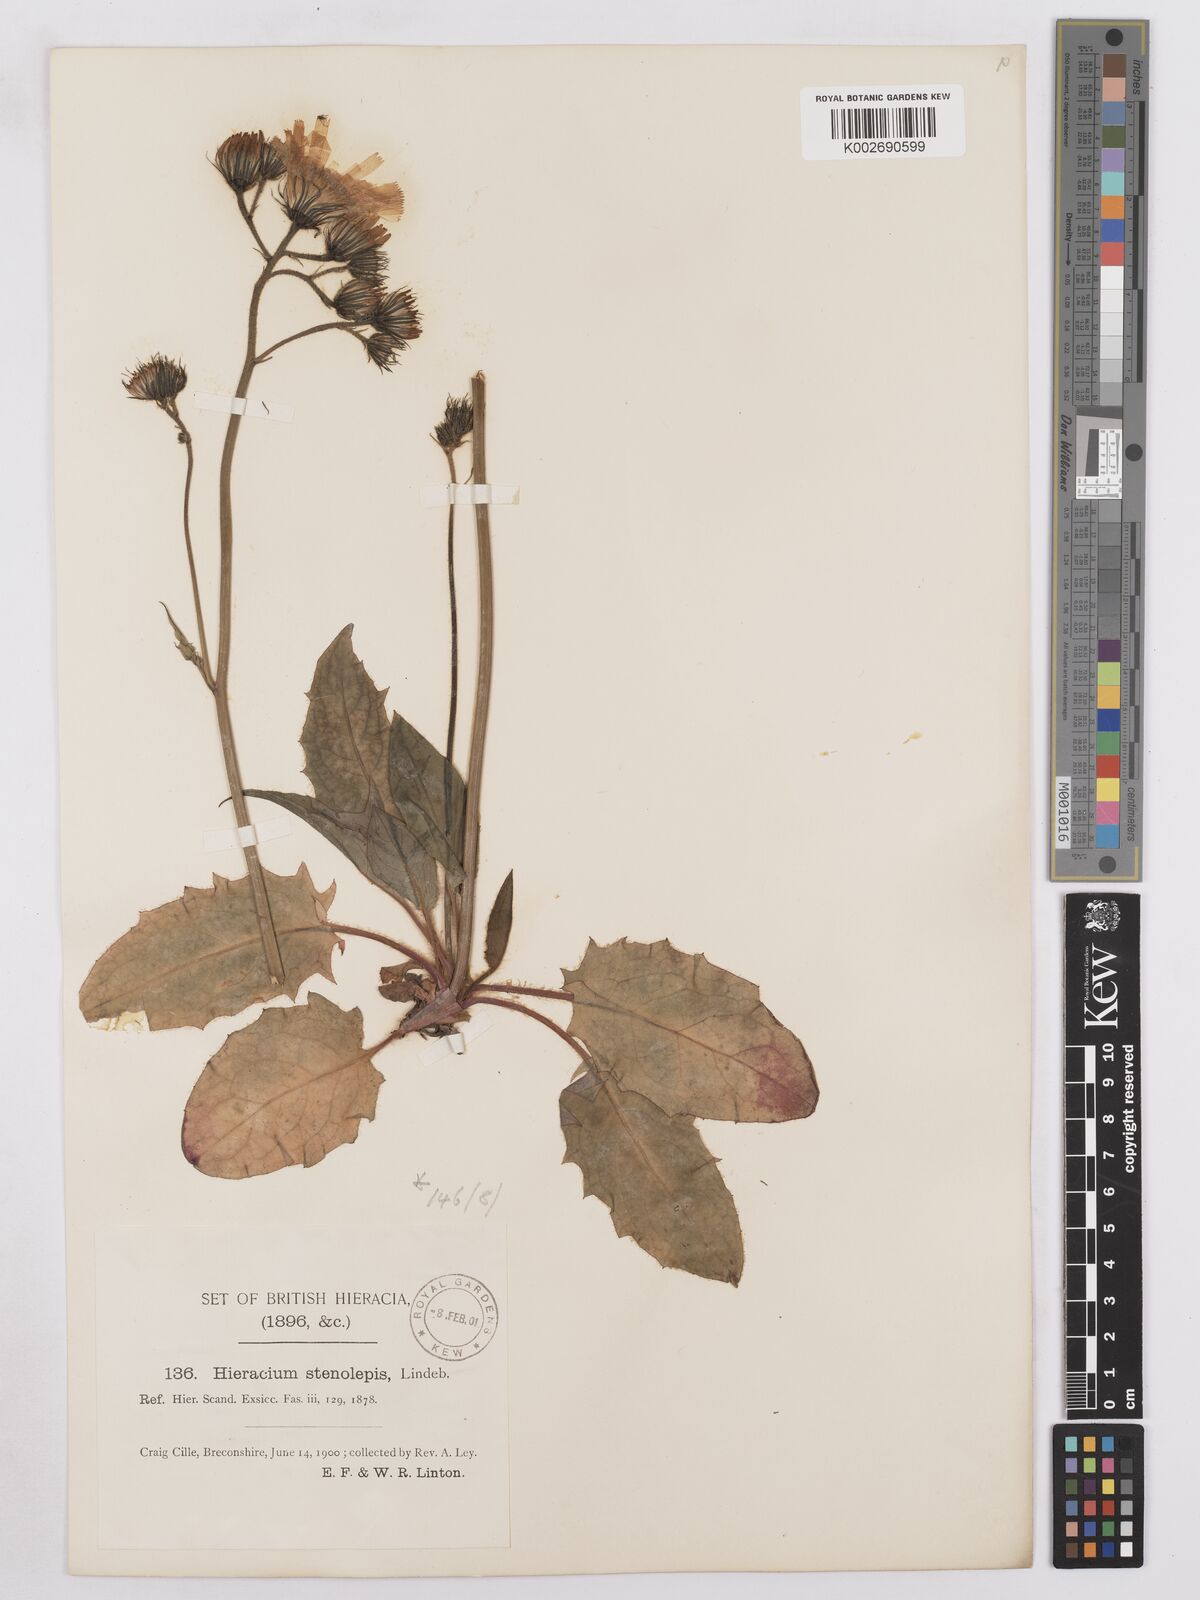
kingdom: Plantae
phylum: Tracheophyta
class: Magnoliopsida
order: Asterales
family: Asteraceae
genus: Hieracium
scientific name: Hieracium subbritannicum
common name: Limestone hawkweed
